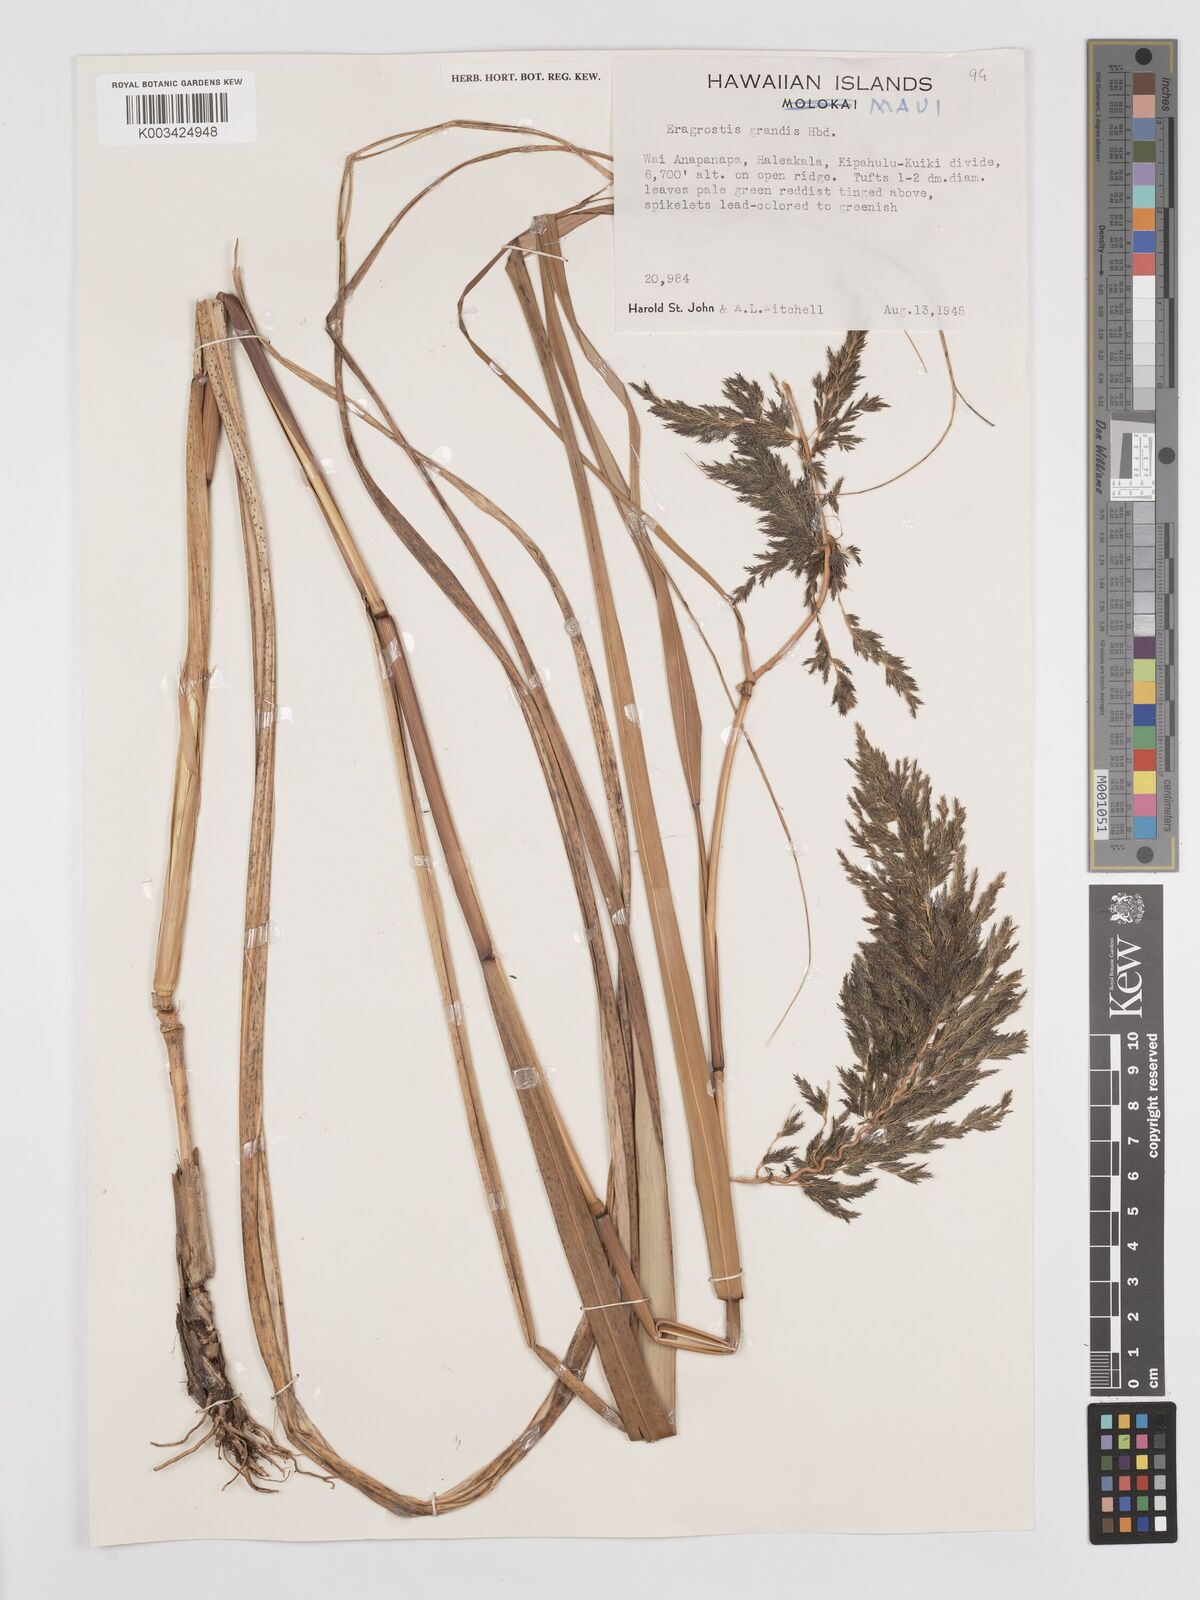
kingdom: Plantae
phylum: Tracheophyta
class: Liliopsida
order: Poales
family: Poaceae
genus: Eragrostis
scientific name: Eragrostis grandis
